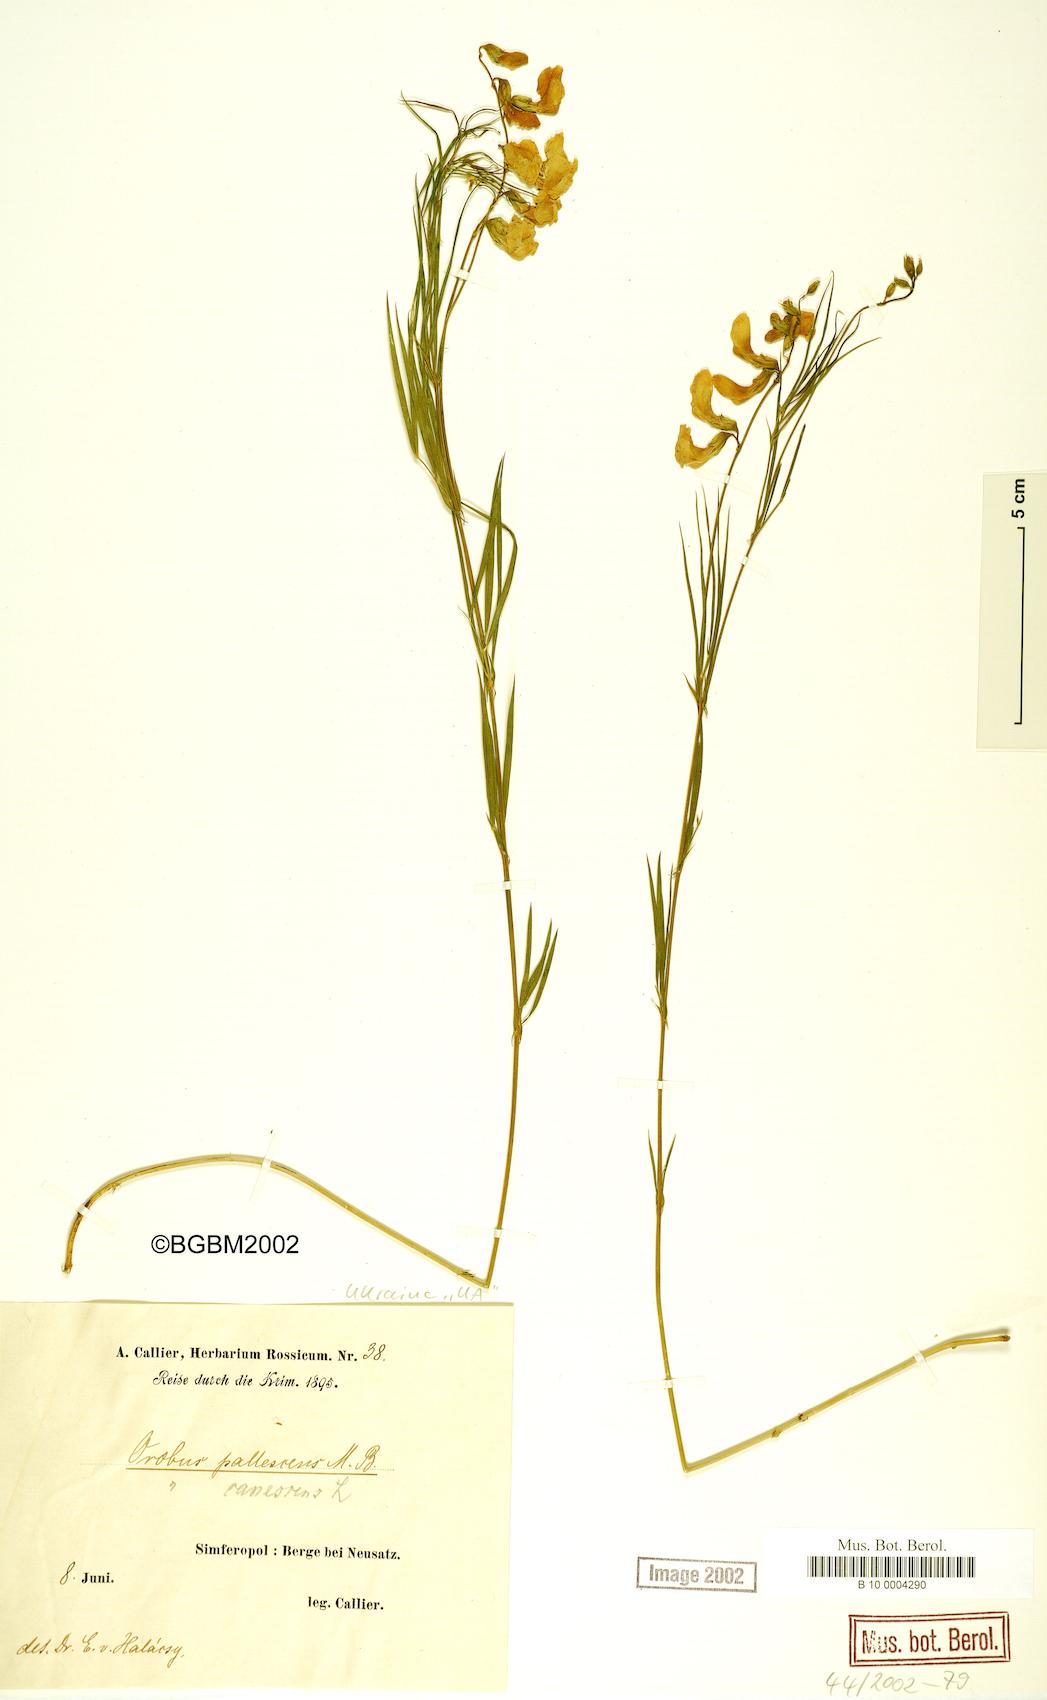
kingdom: Plantae
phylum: Tracheophyta
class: Magnoliopsida
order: Fabales
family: Fabaceae
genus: Lathyrus
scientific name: Lathyrus filiformis
